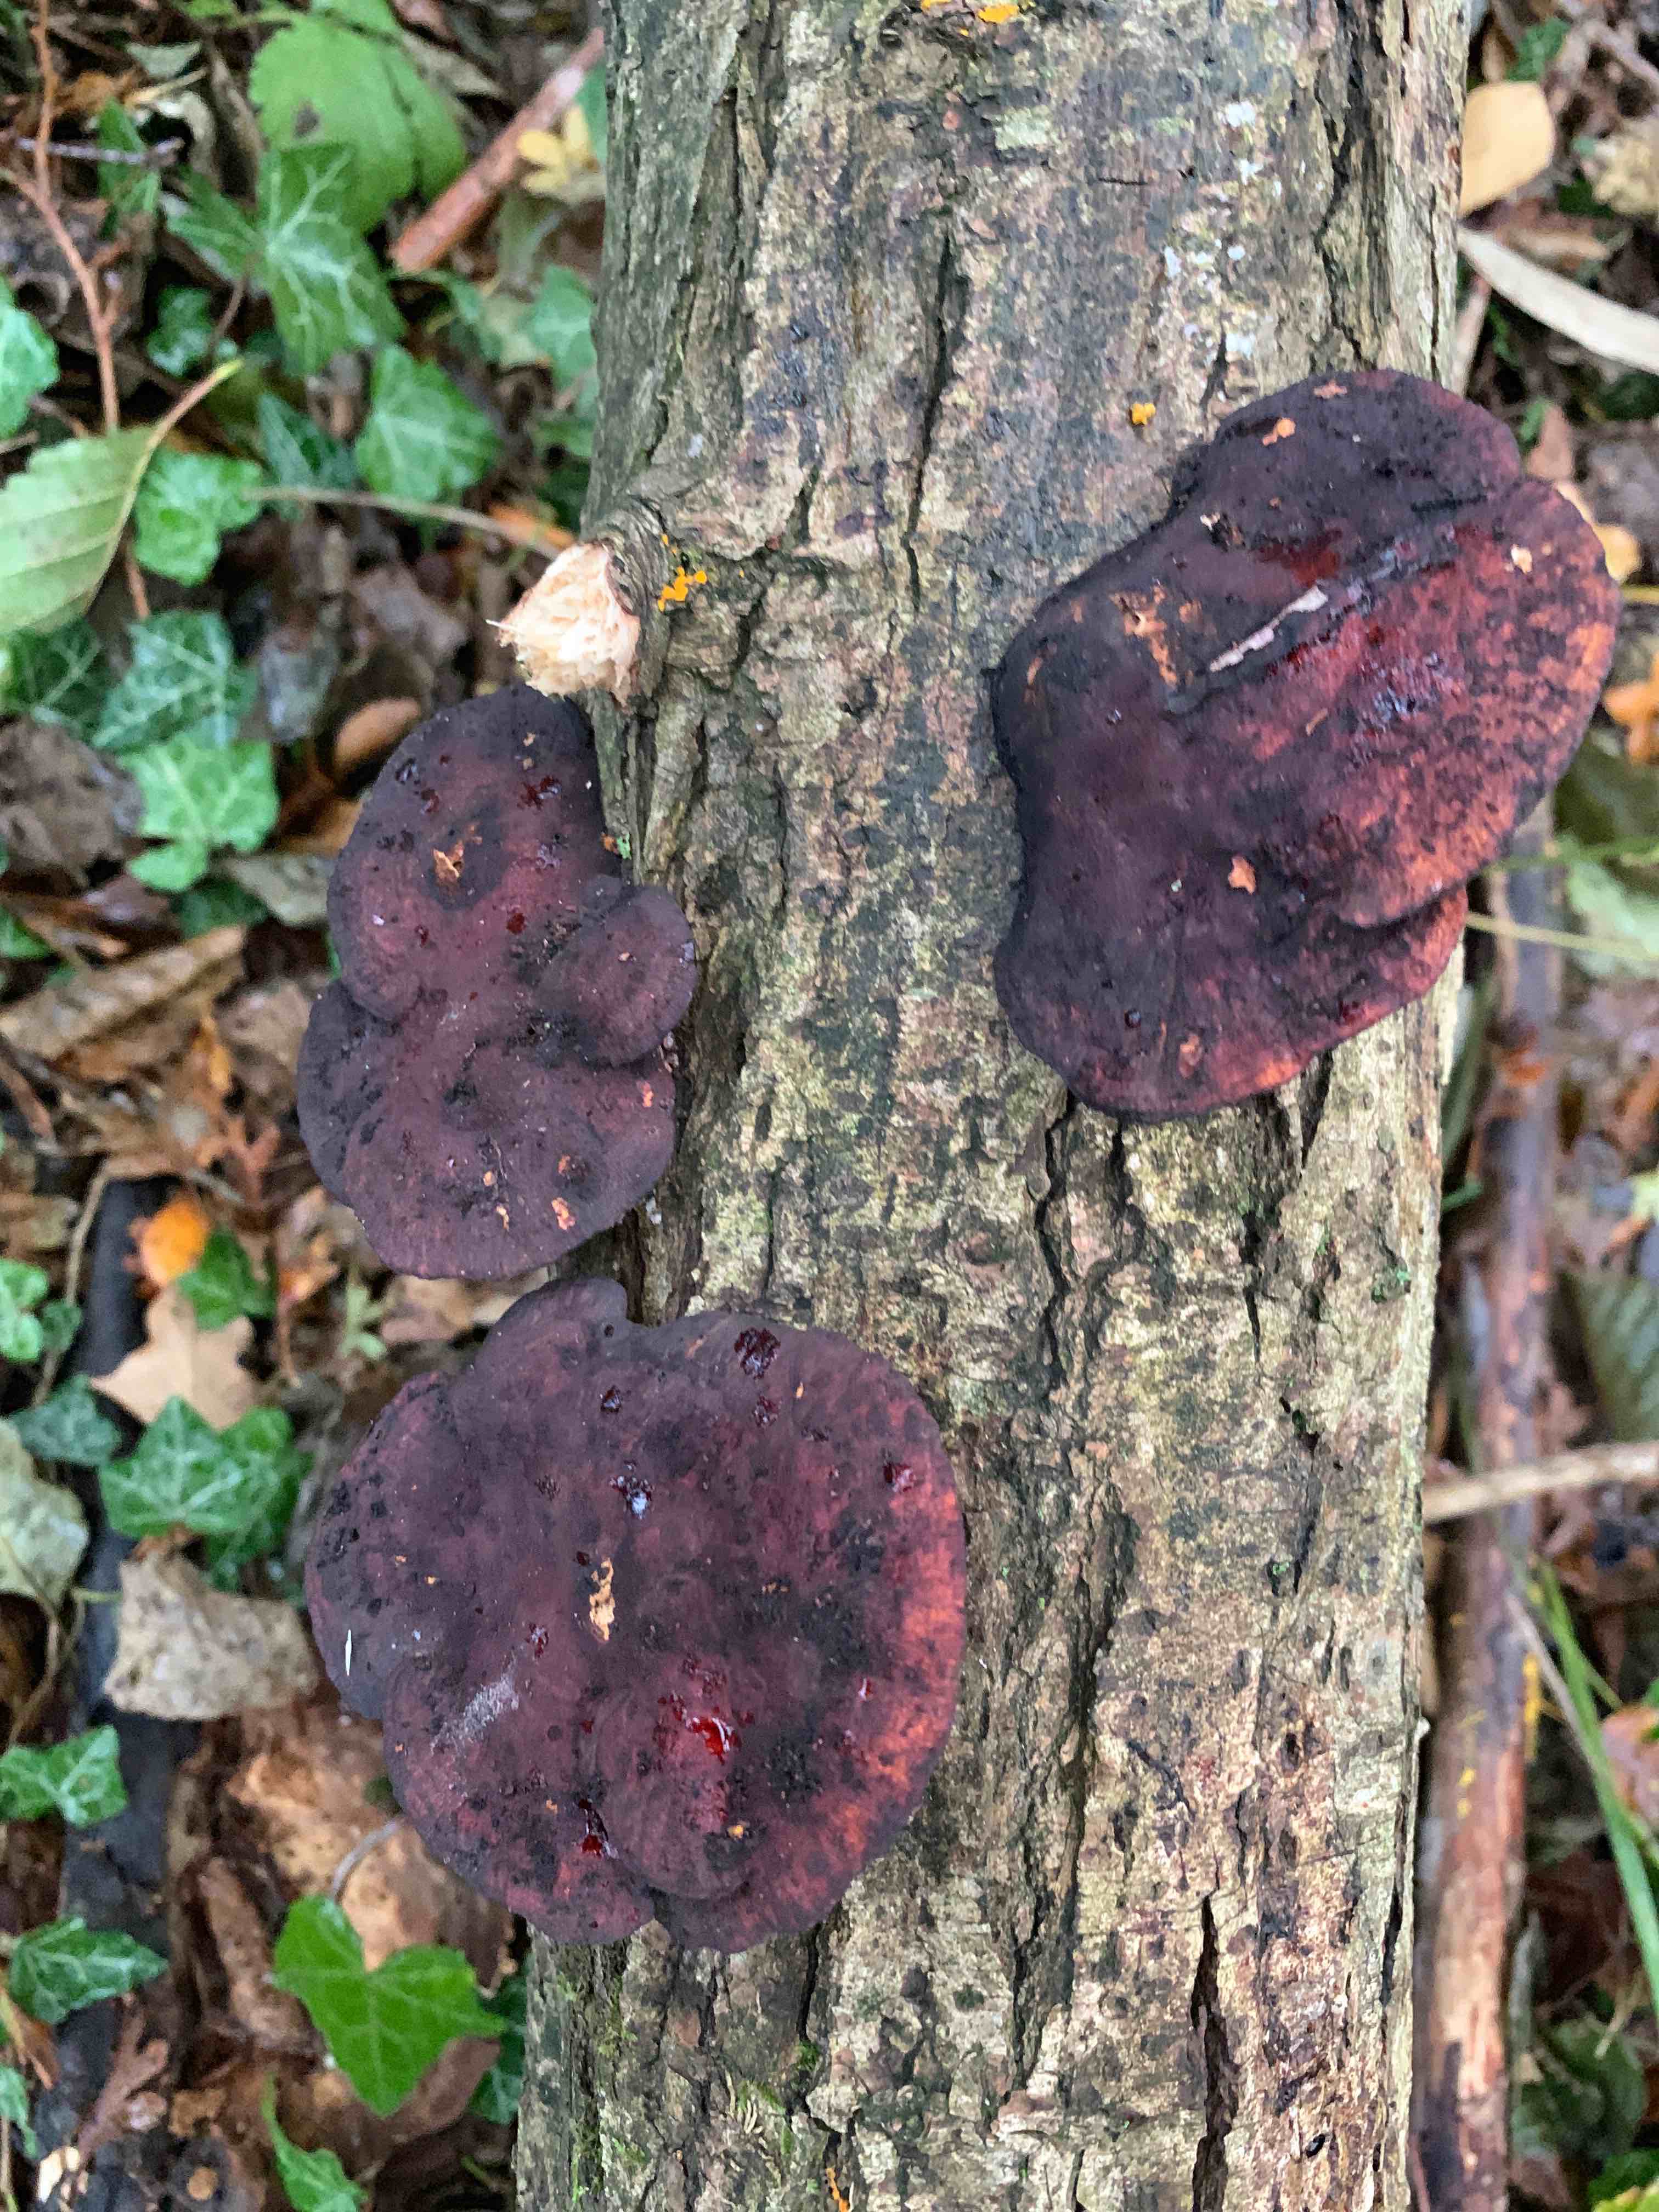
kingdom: Fungi
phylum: Basidiomycota
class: Agaricomycetes
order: Polyporales
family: Polyporaceae
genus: Daedaleopsis
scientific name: Daedaleopsis confragosa
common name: rødmende læderporesvamp
